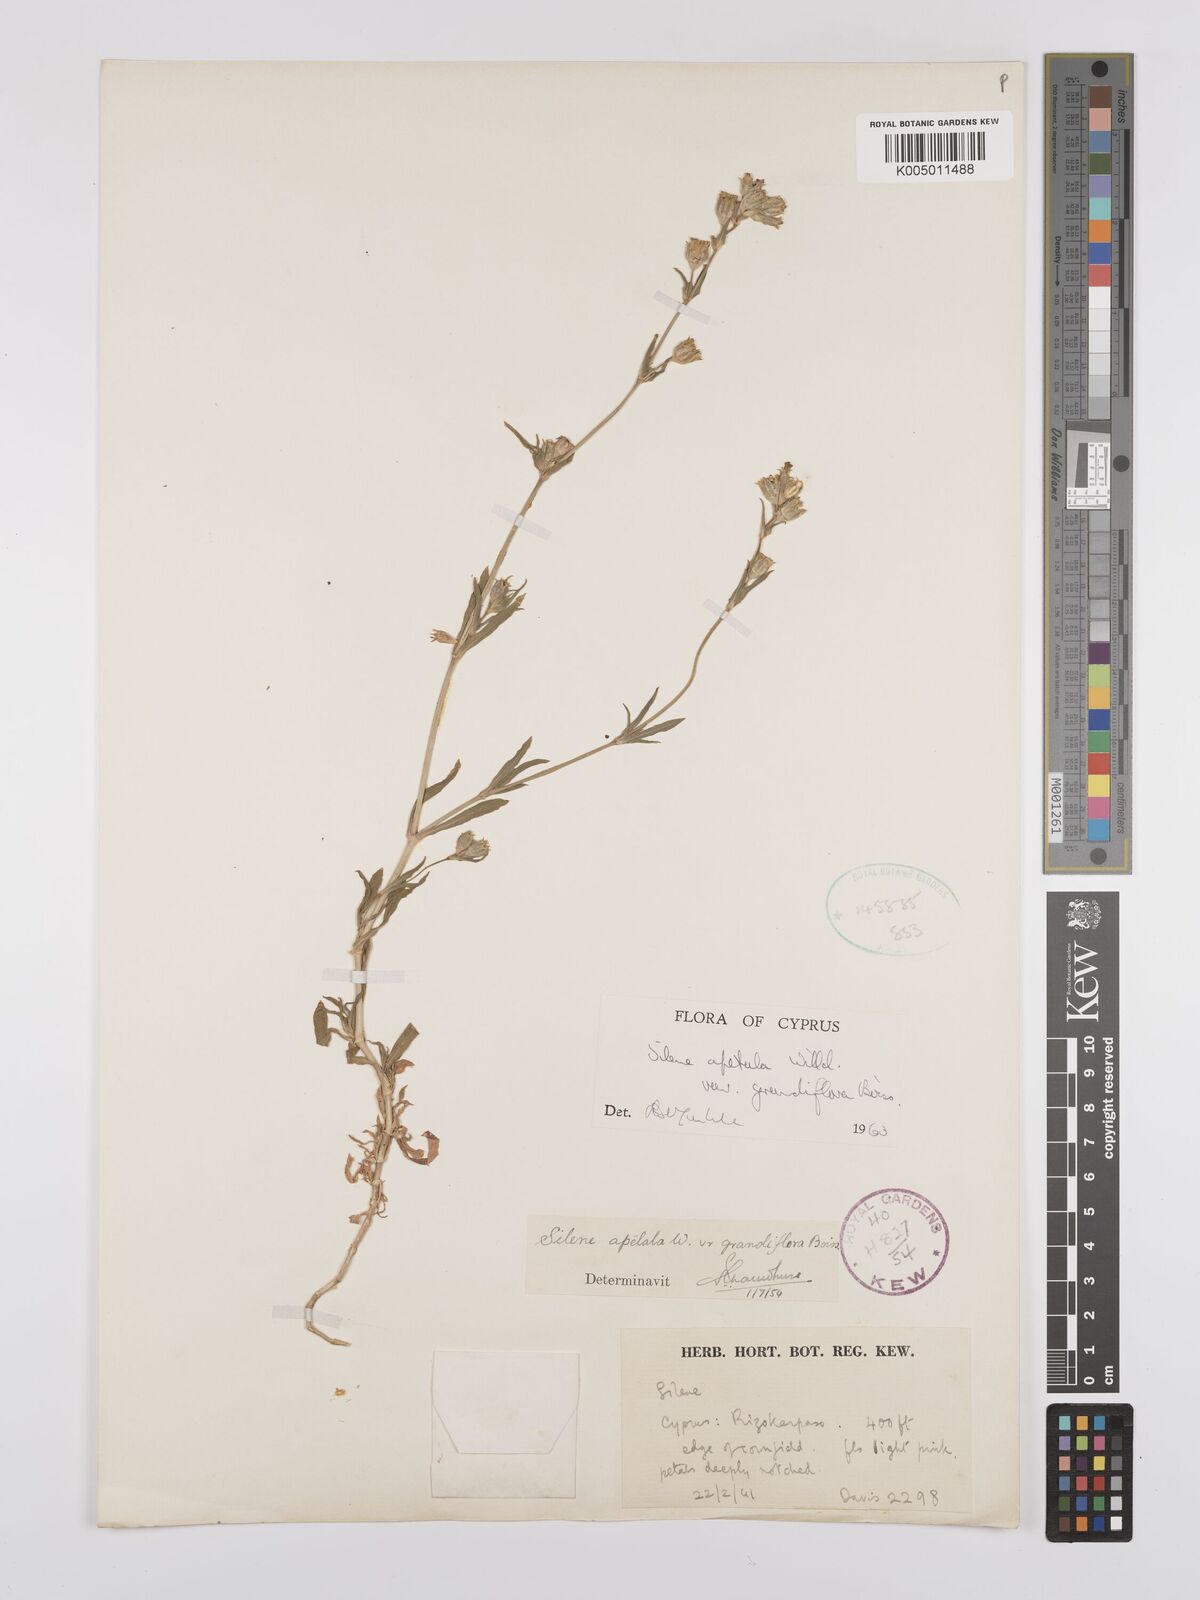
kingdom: Plantae
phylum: Tracheophyta
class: Magnoliopsida
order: Caryophyllales
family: Caryophyllaceae
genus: Silene
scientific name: Silene apetala
